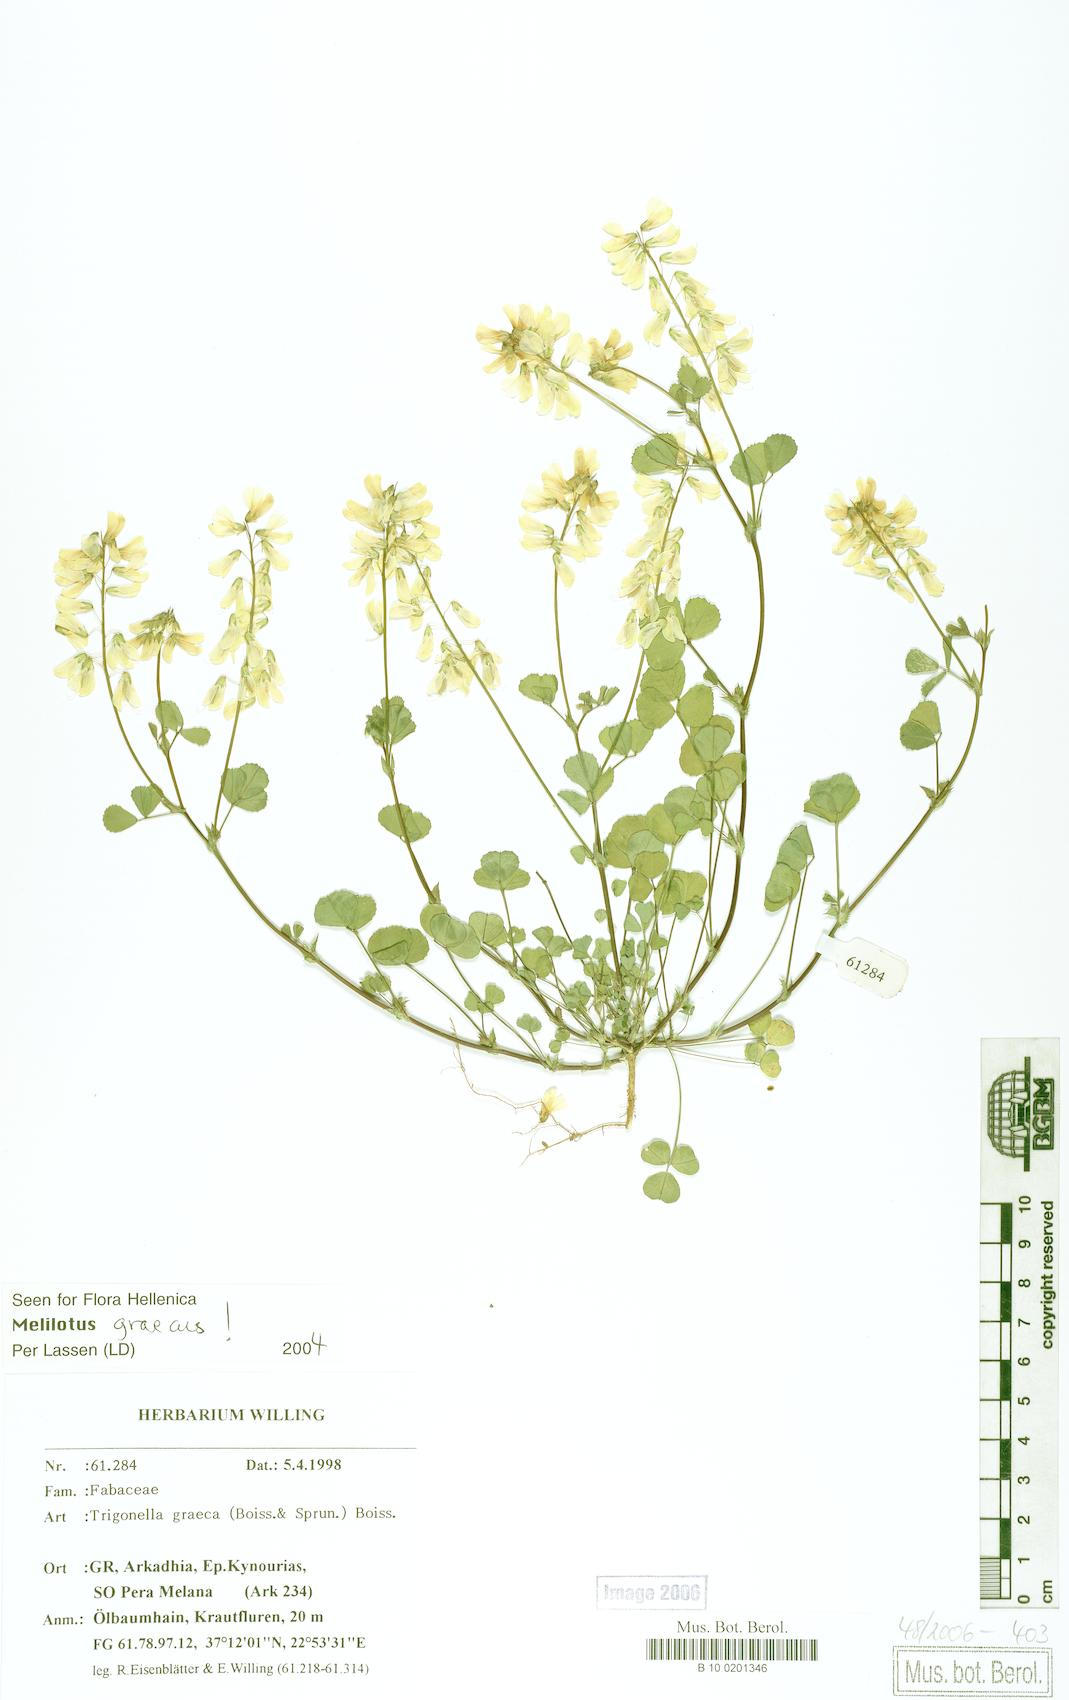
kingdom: Plantae
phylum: Tracheophyta
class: Magnoliopsida
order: Fabales
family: Fabaceae
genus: Trigonella
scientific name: Trigonella graeca
